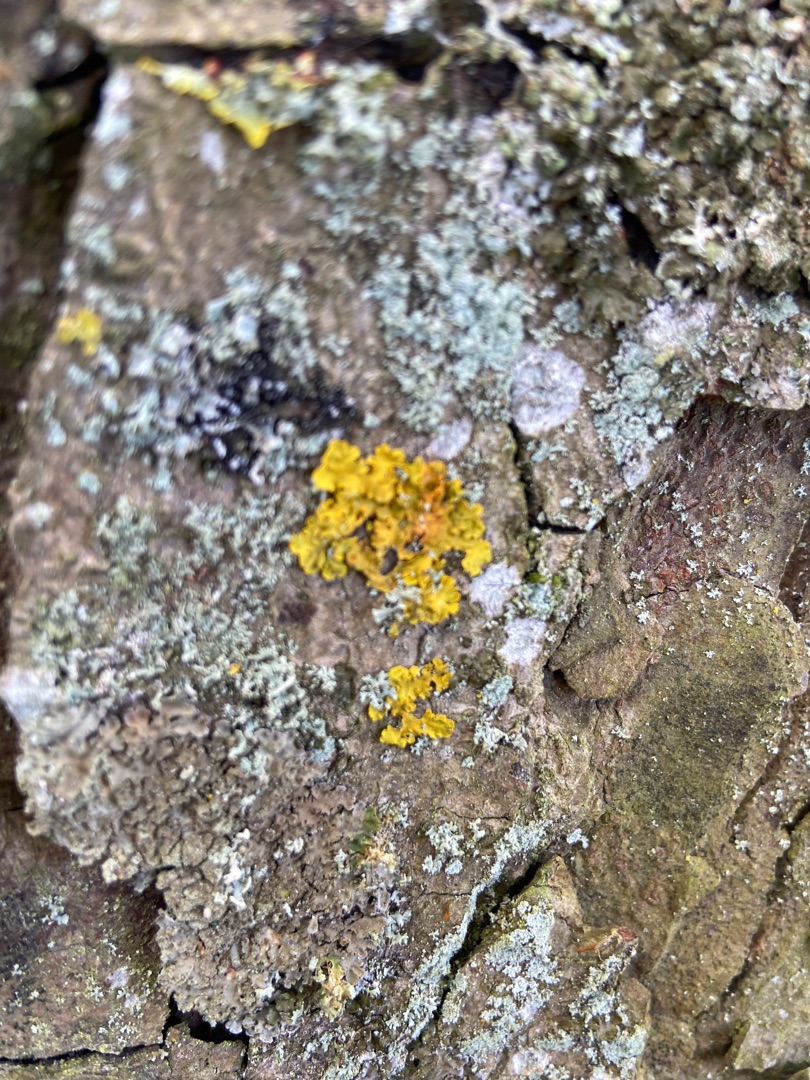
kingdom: Fungi
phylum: Ascomycota
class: Lecanoromycetes
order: Teloschistales
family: Teloschistaceae
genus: Xanthoria
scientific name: Xanthoria parietina
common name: Almindelig væggelav
